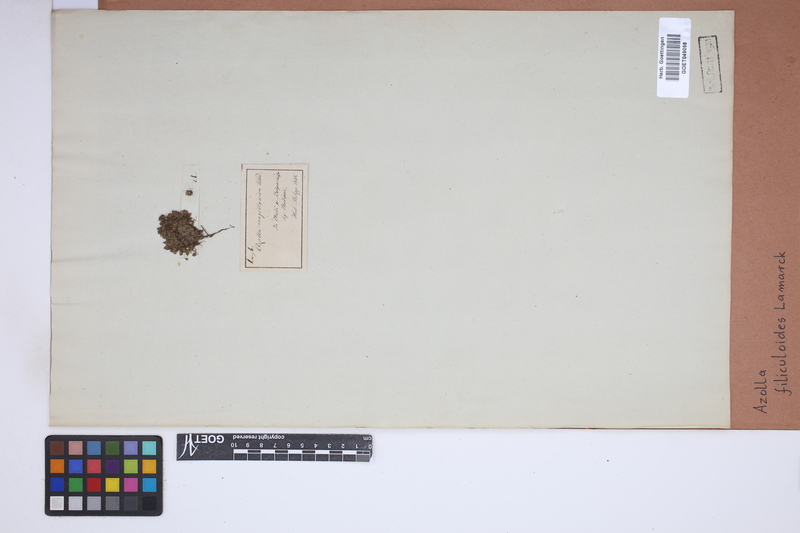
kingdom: Plantae
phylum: Tracheophyta
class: Polypodiopsida
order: Salviniales
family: Salviniaceae
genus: Azolla
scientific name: Azolla filiculoides
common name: Water fern
